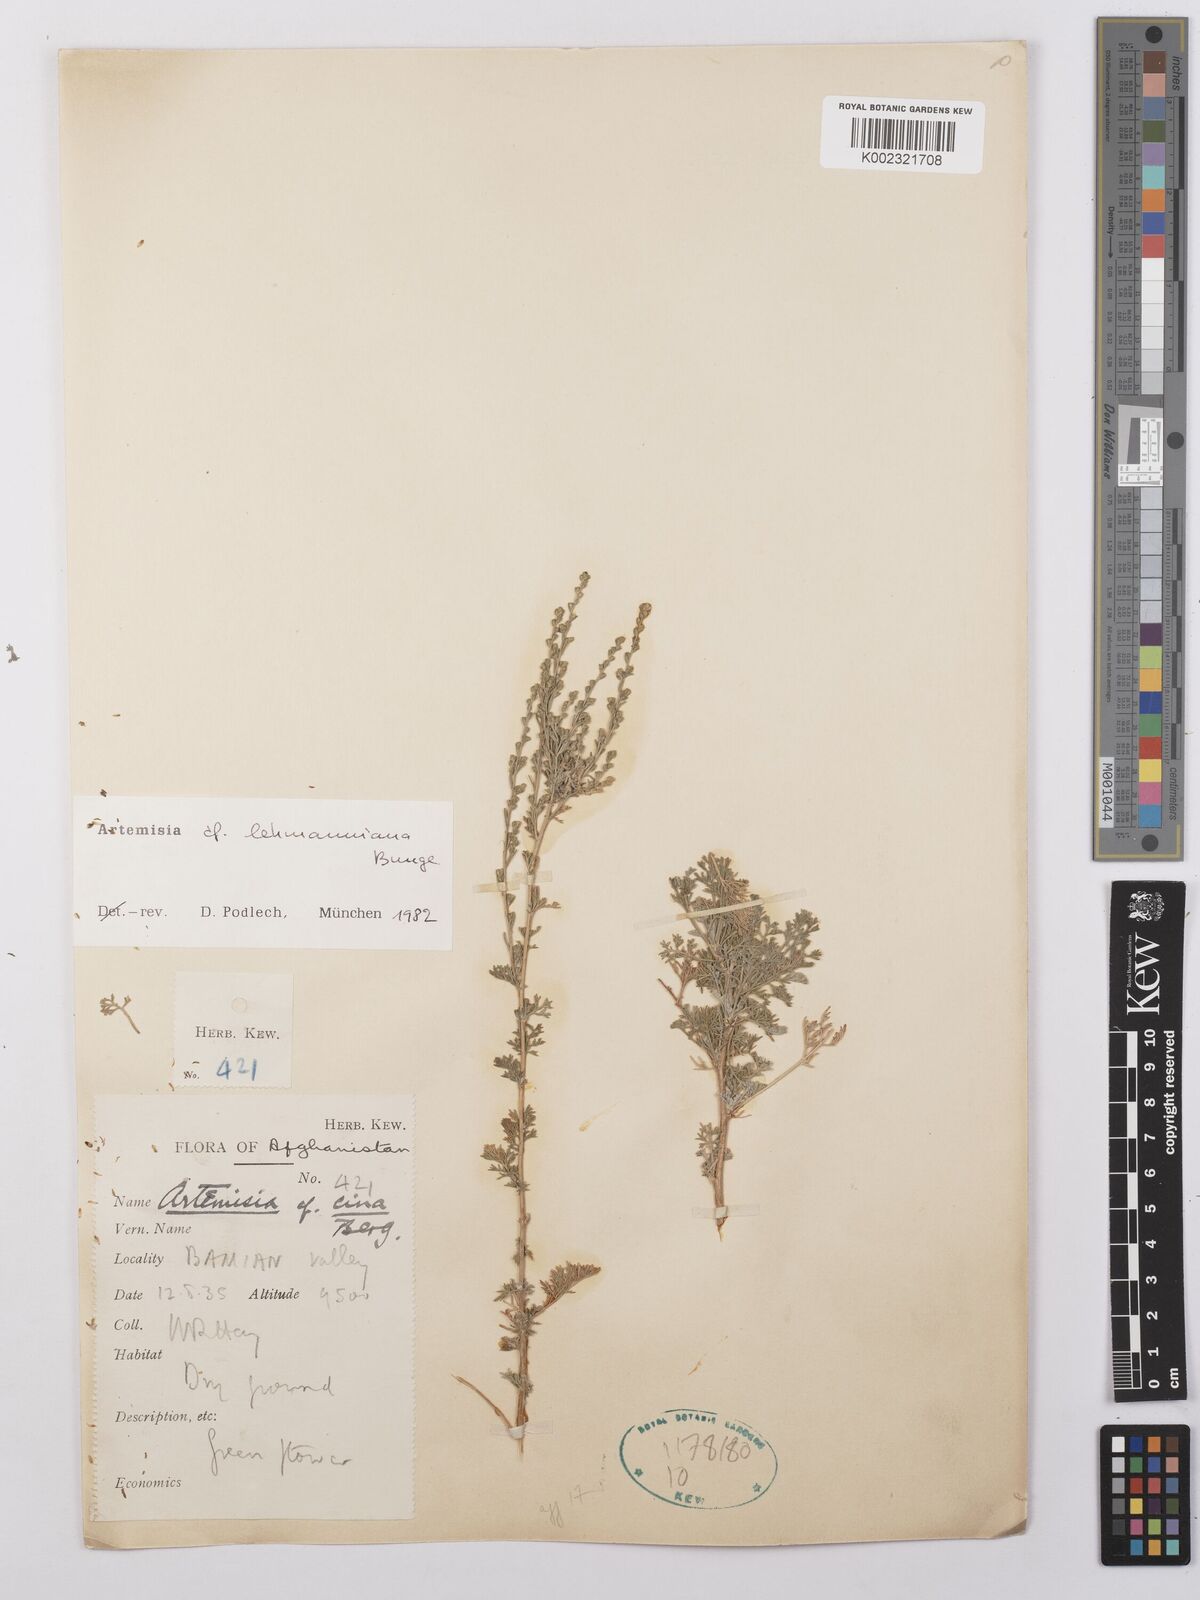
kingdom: Plantae
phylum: Tracheophyta
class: Magnoliopsida
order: Asterales
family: Asteraceae
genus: Artemisia
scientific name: Artemisia lehmanniana
